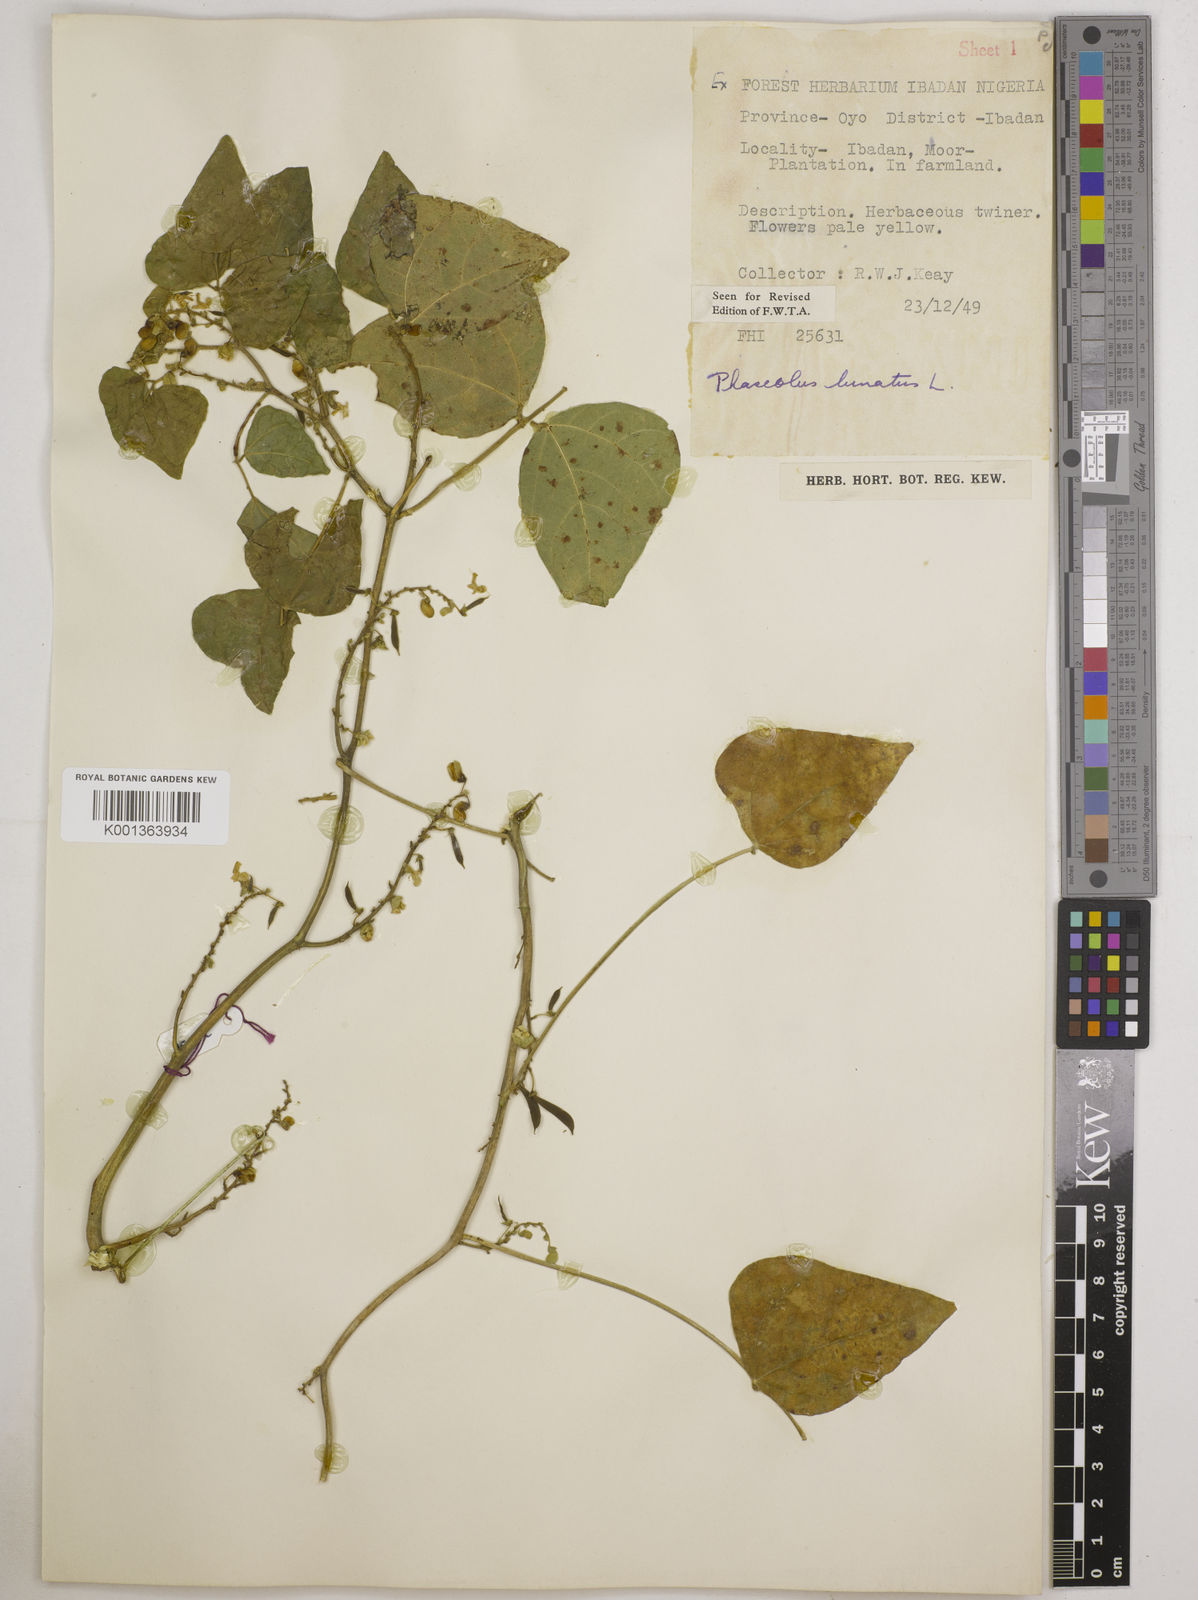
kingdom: Plantae
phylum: Tracheophyta
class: Magnoliopsida
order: Fabales
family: Fabaceae
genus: Phaseolus
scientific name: Phaseolus lunatus
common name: Sieva bean
